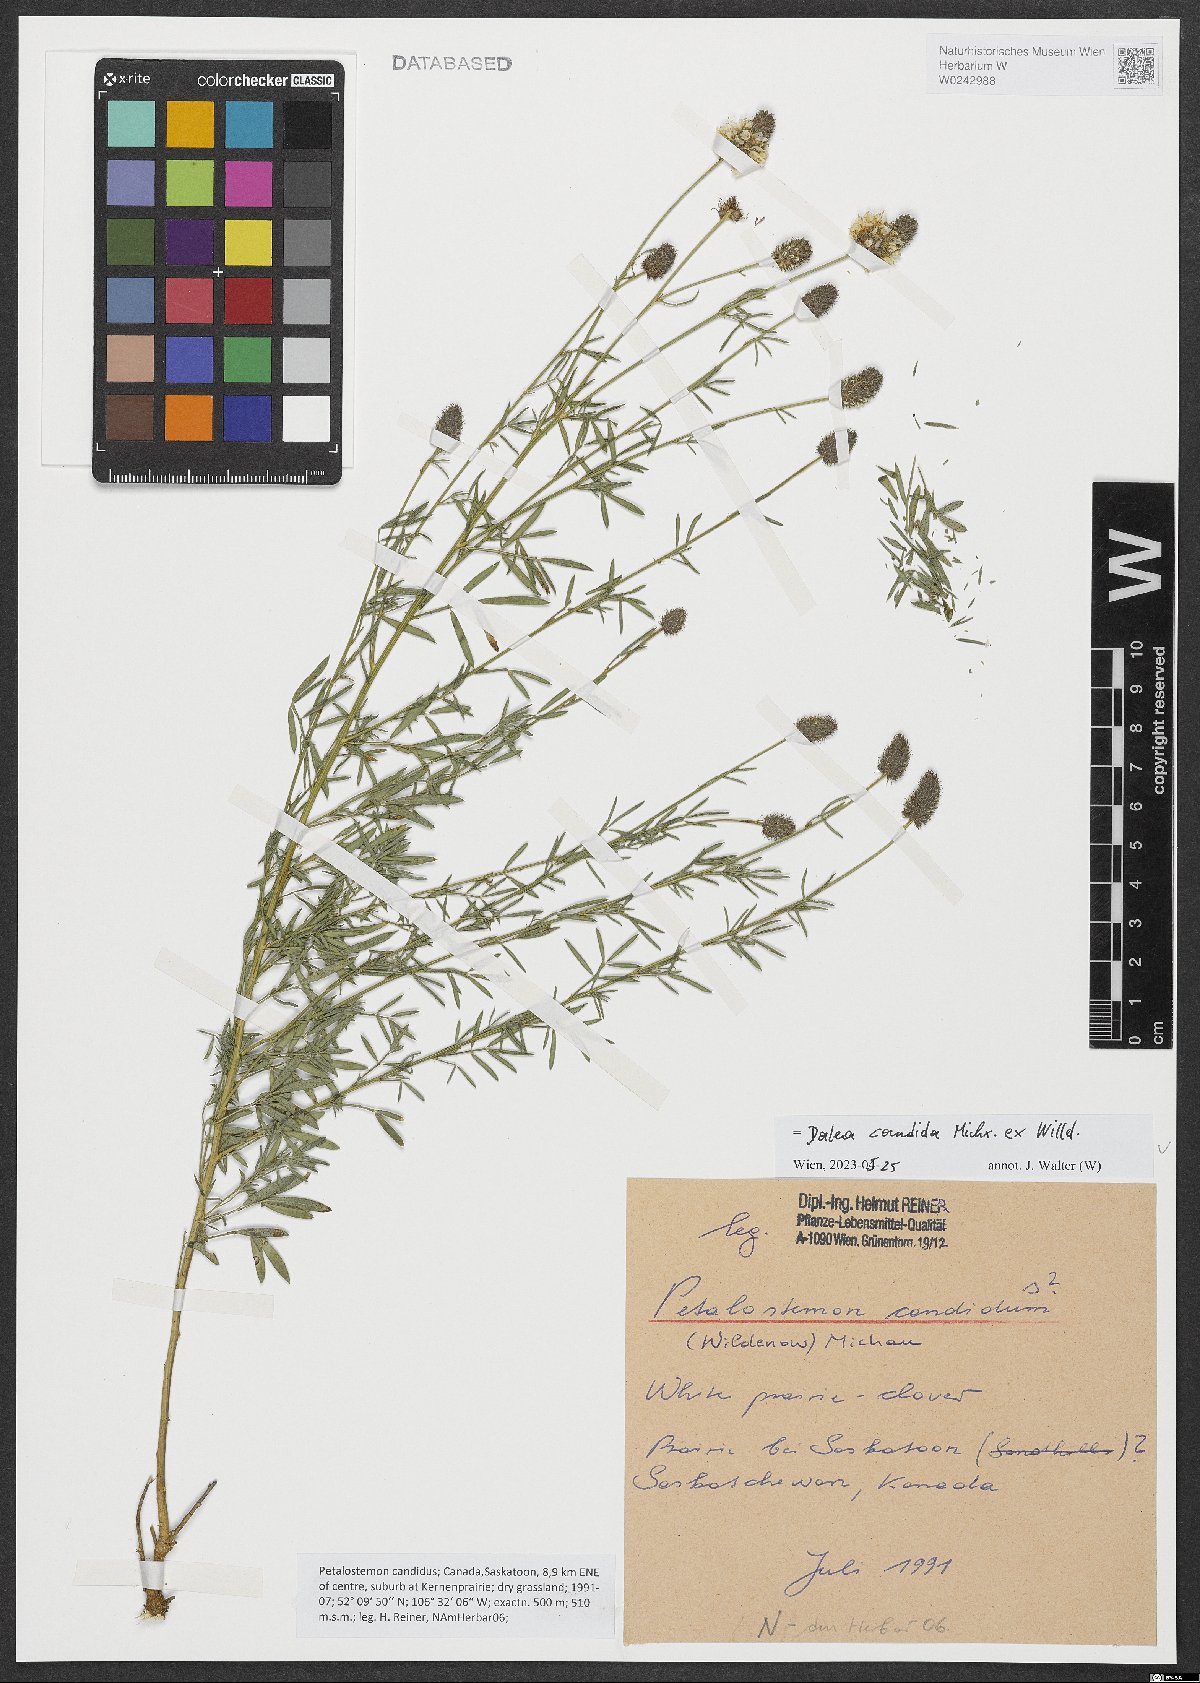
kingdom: Plantae
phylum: Tracheophyta
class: Magnoliopsida
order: Fabales
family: Fabaceae
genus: Dalea
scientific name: Dalea candida
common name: White prairie-clover
